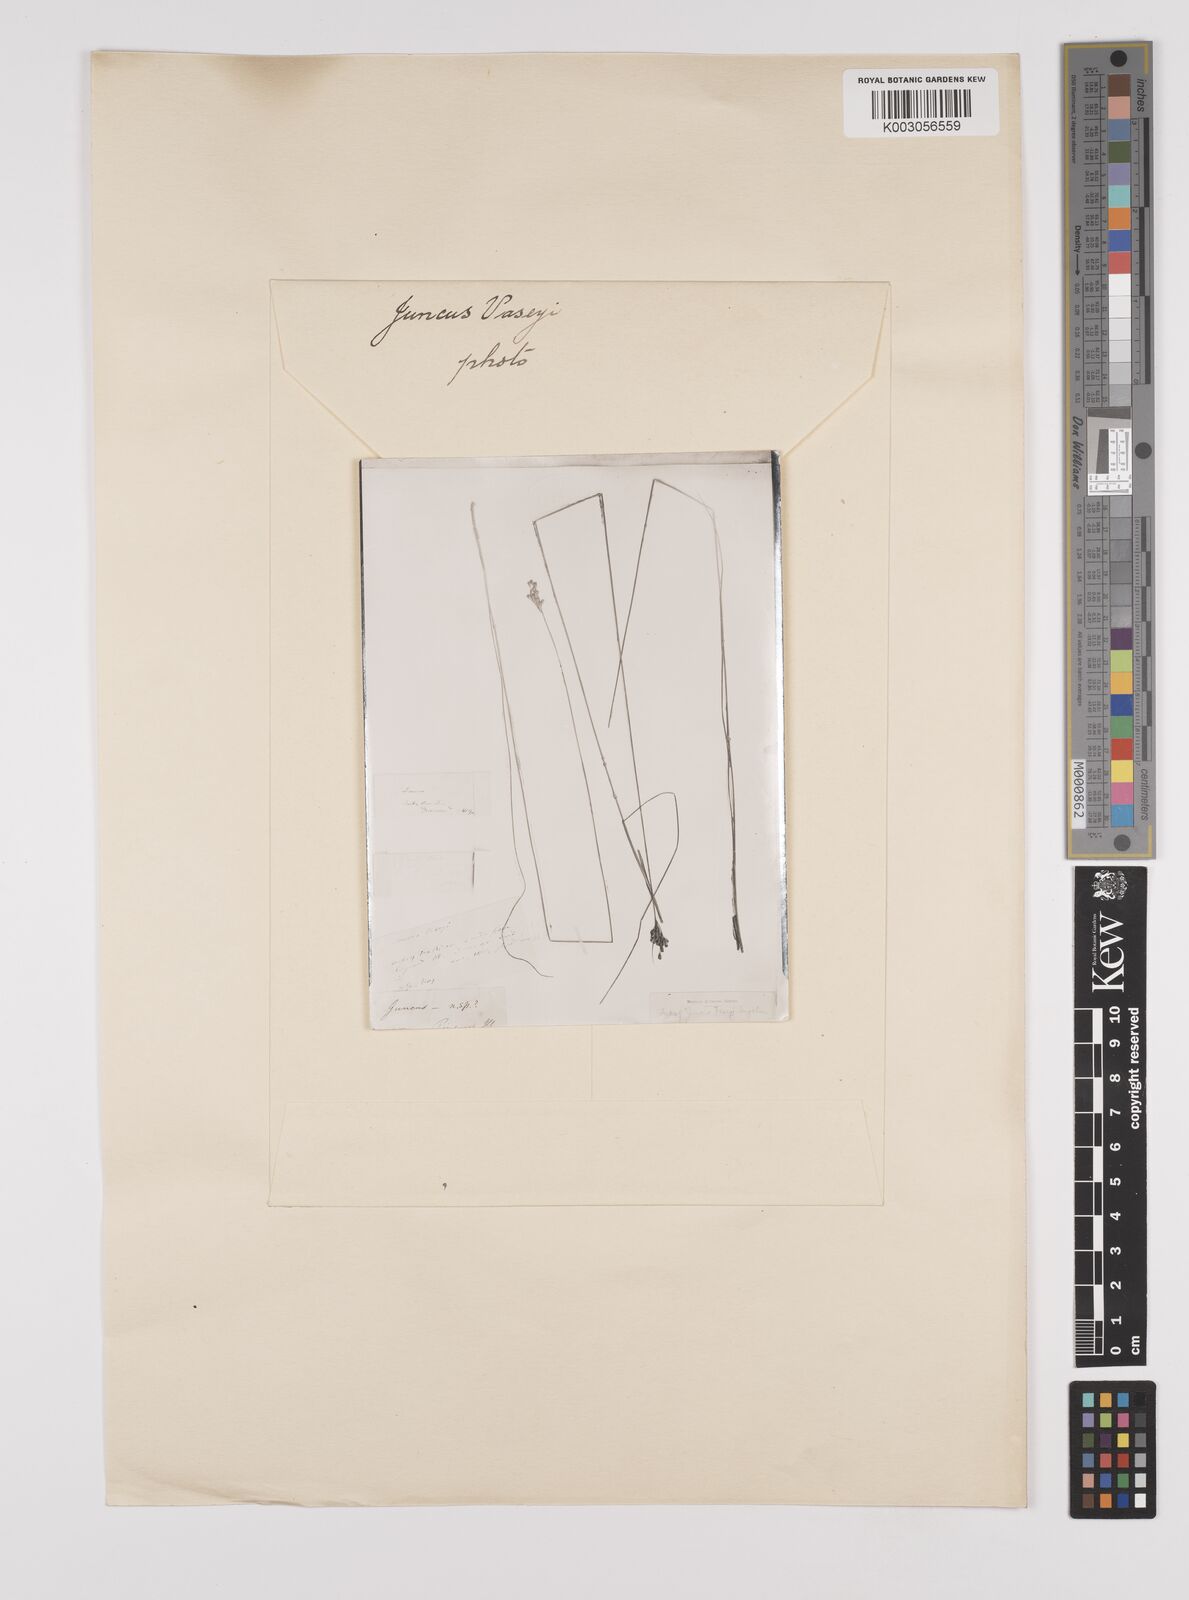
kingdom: Plantae
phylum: Tracheophyta
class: Liliopsida
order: Poales
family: Juncaceae
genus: Juncus
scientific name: Juncus vaseyi
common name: Big-headed rush
